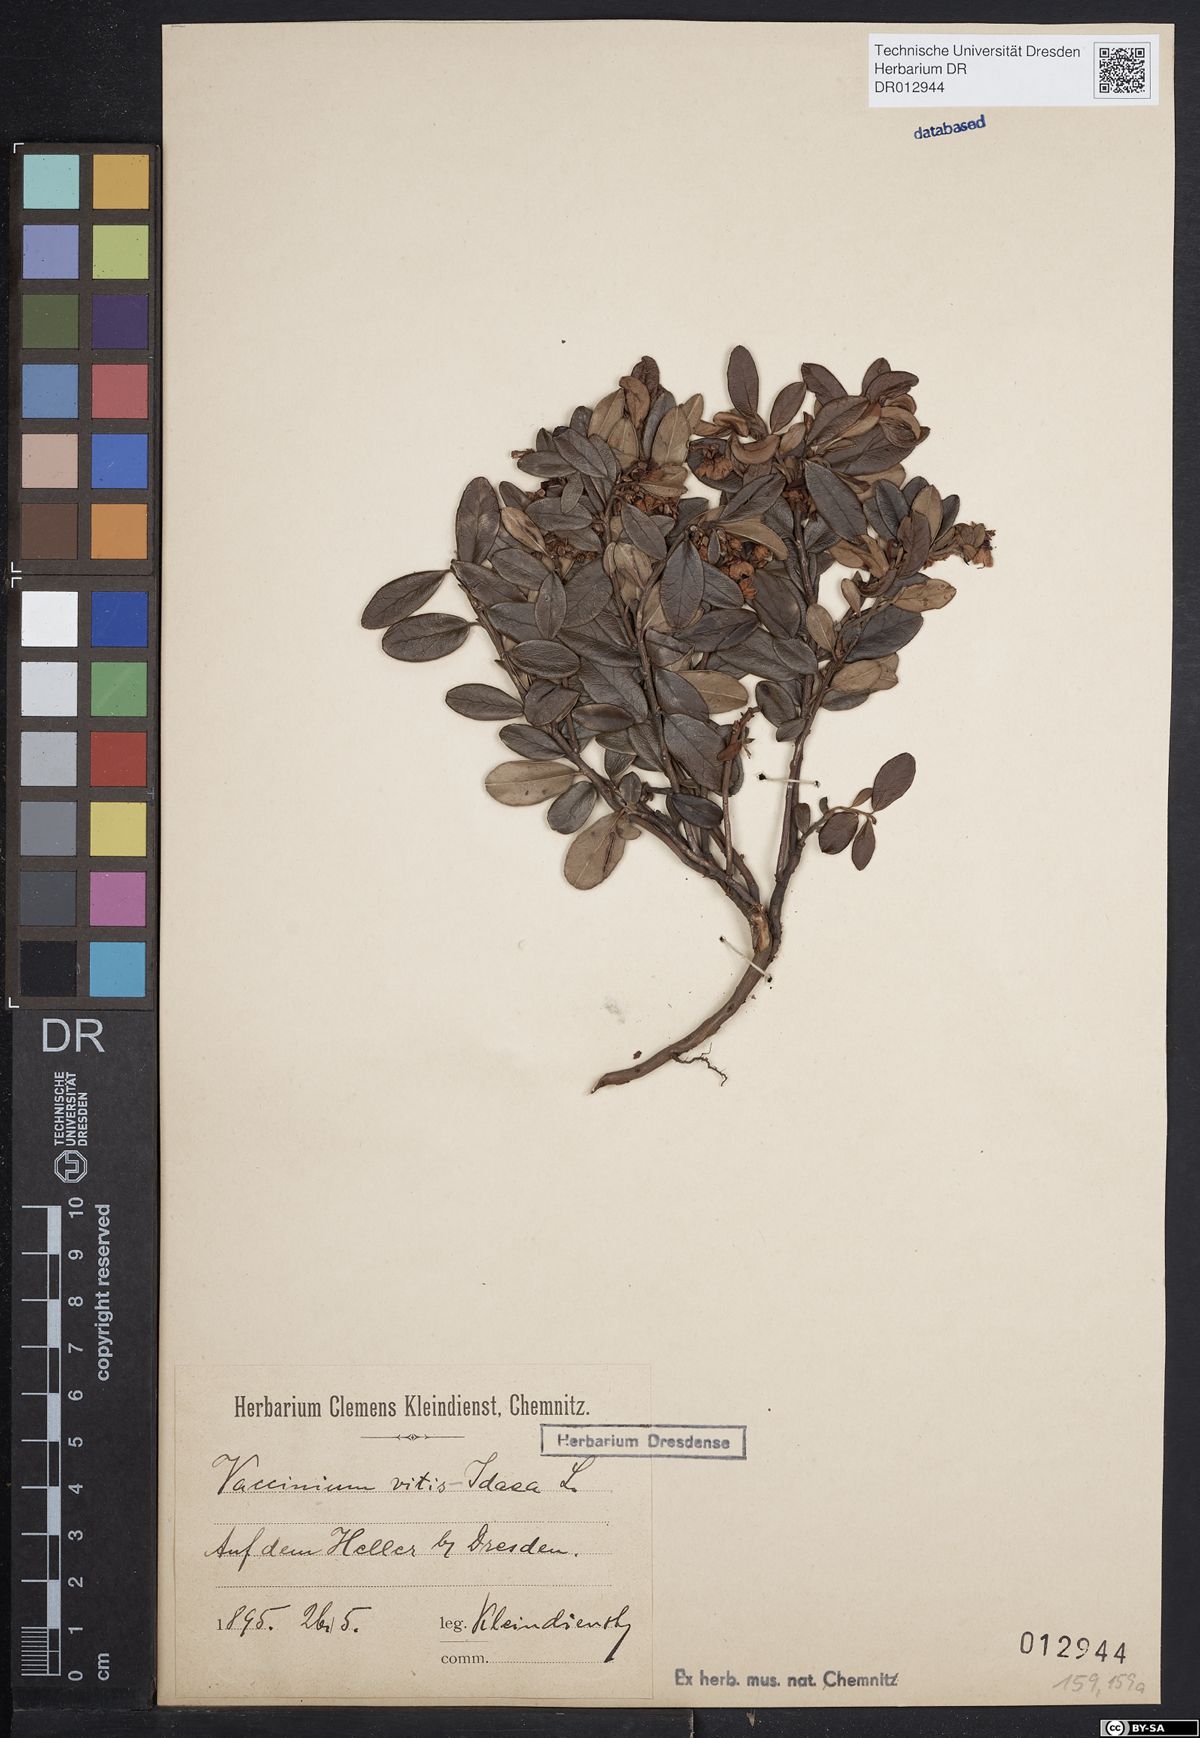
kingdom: Plantae
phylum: Tracheophyta
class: Magnoliopsida
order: Ericales
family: Ericaceae
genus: Vaccinium
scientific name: Vaccinium vitis-idaea
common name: Cowberry
